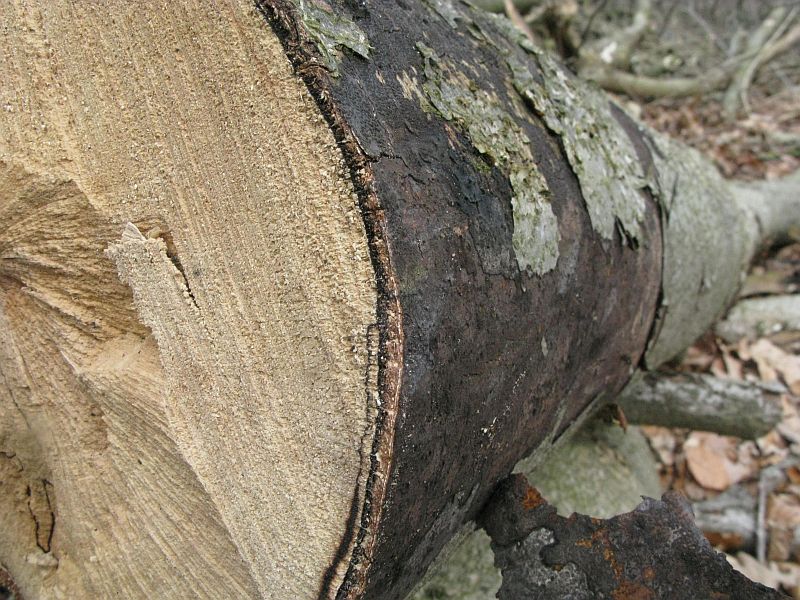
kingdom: Fungi
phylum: Ascomycota
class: Sordariomycetes
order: Xylariales
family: Diatrypaceae
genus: Eutypa
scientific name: Eutypa spinosa
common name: grov kulskorpe
